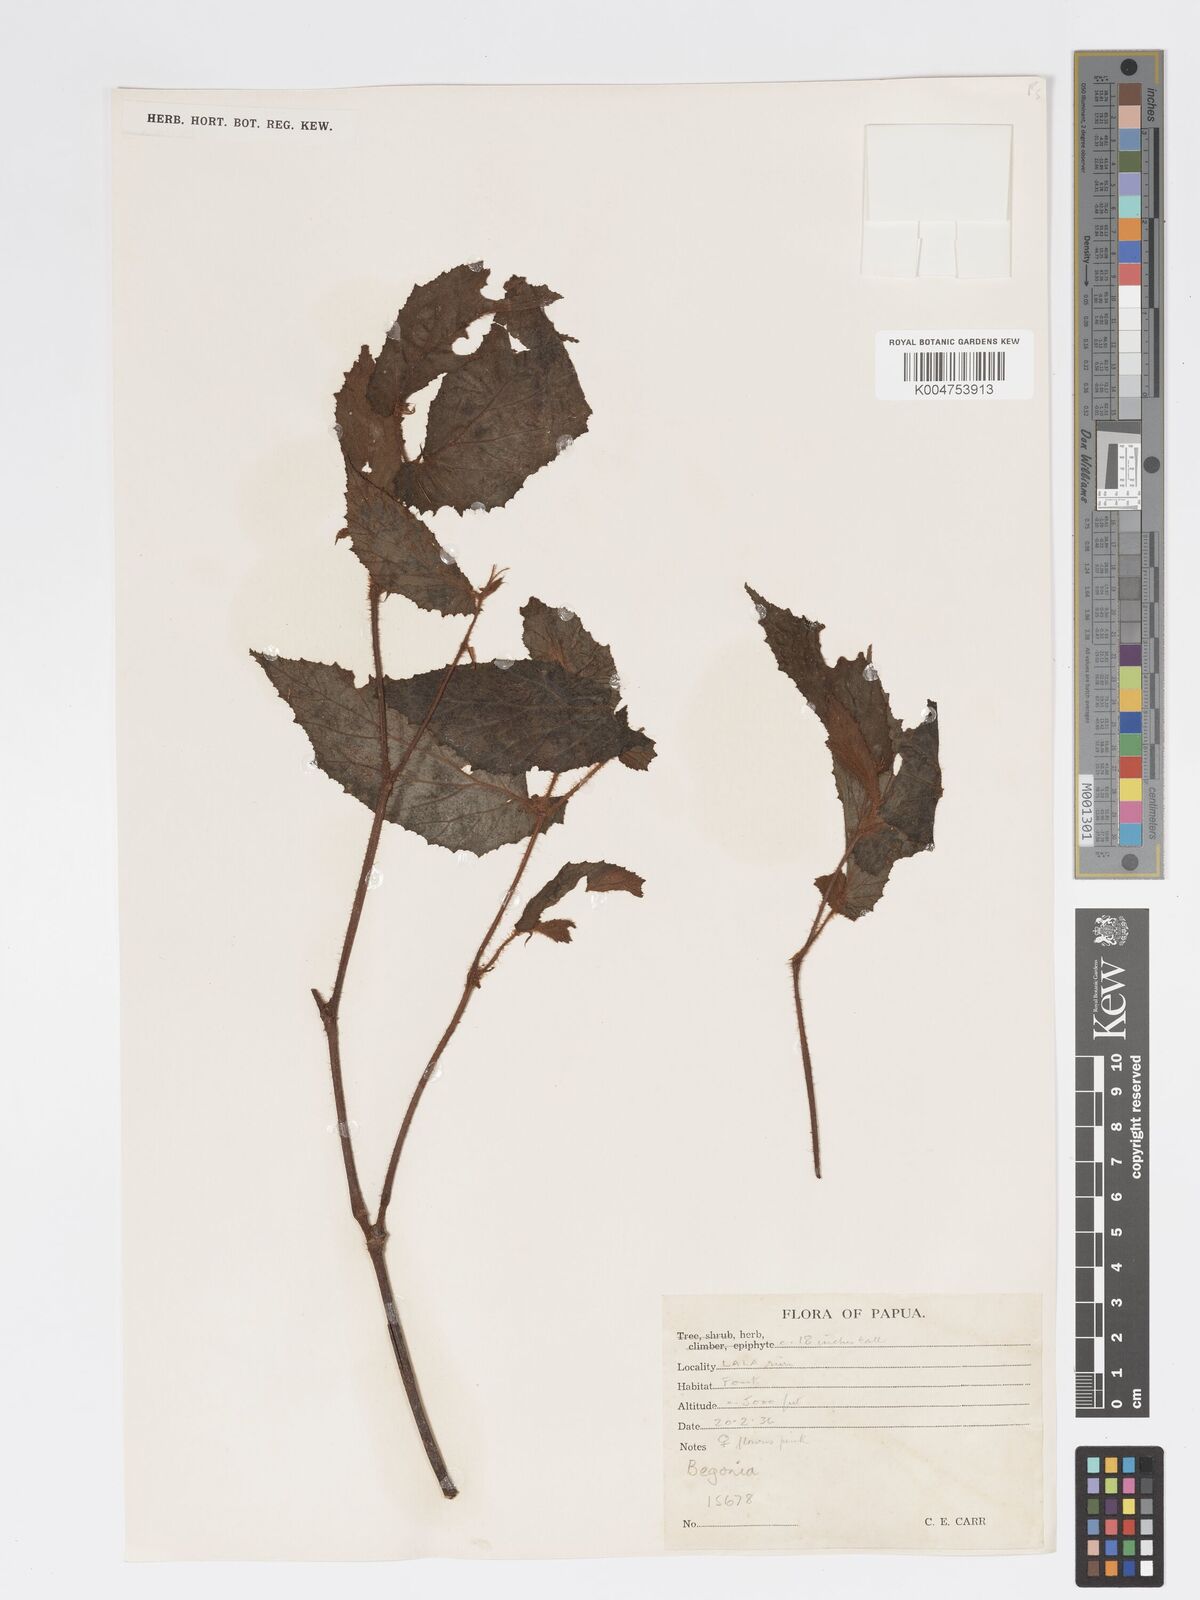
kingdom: Plantae
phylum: Tracheophyta
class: Magnoliopsida
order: Cucurbitales
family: Begoniaceae
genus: Begonia
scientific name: Begonia fruticella
